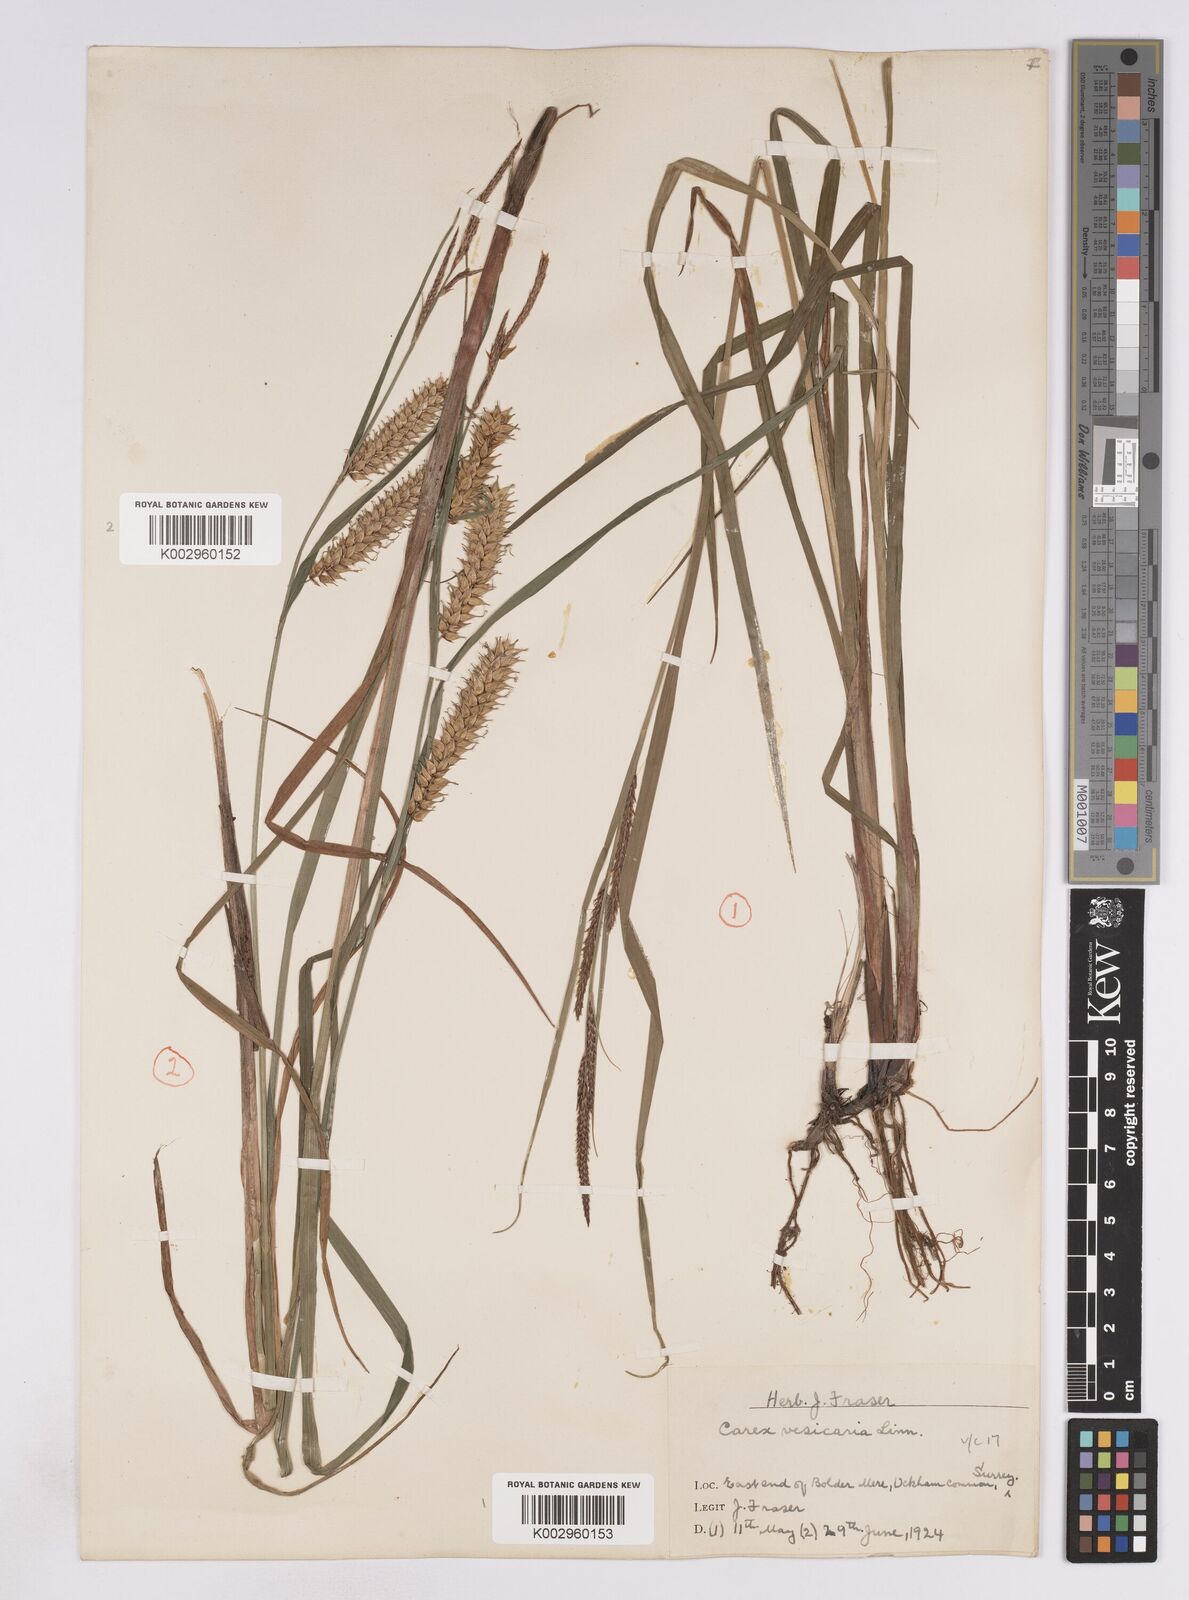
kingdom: Plantae
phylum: Tracheophyta
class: Liliopsida
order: Poales
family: Cyperaceae
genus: Carex
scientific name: Carex vesicaria
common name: Bladder-sedge
